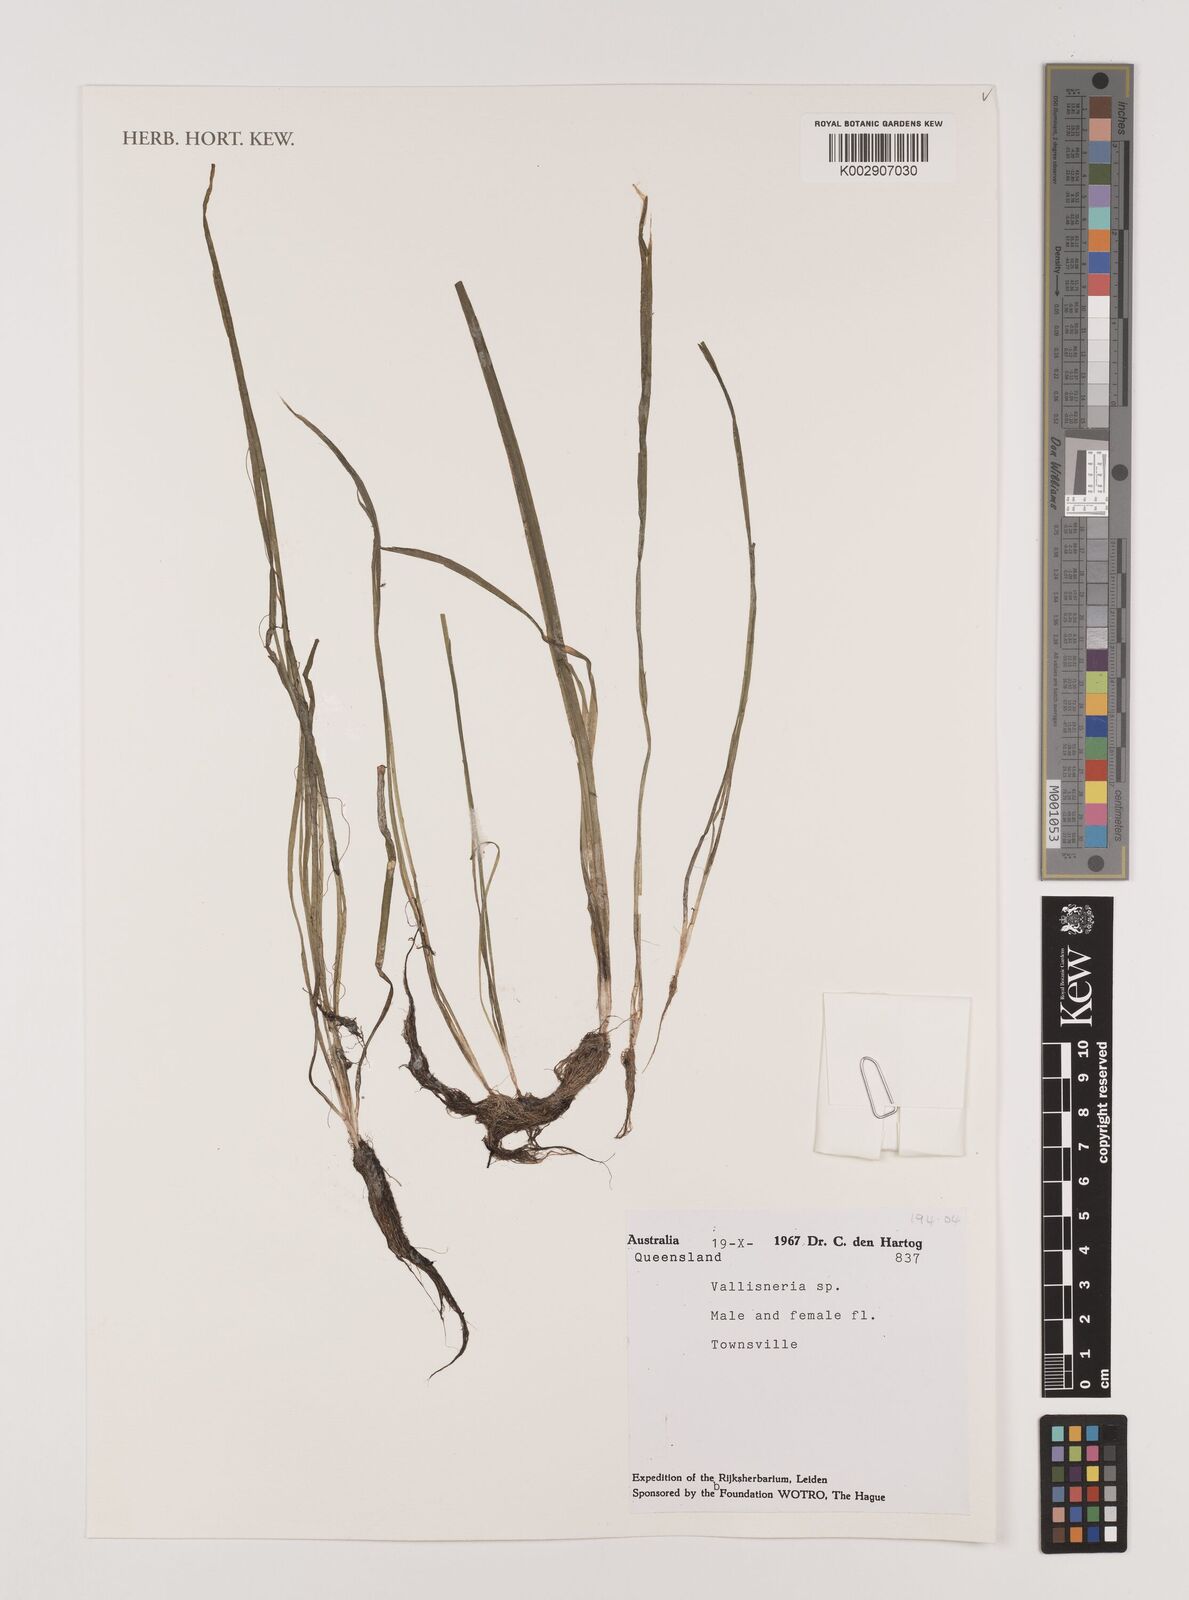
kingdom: Plantae
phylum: Tracheophyta
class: Liliopsida
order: Alismatales
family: Hydrocharitaceae
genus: Vallisneria
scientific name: Vallisneria
